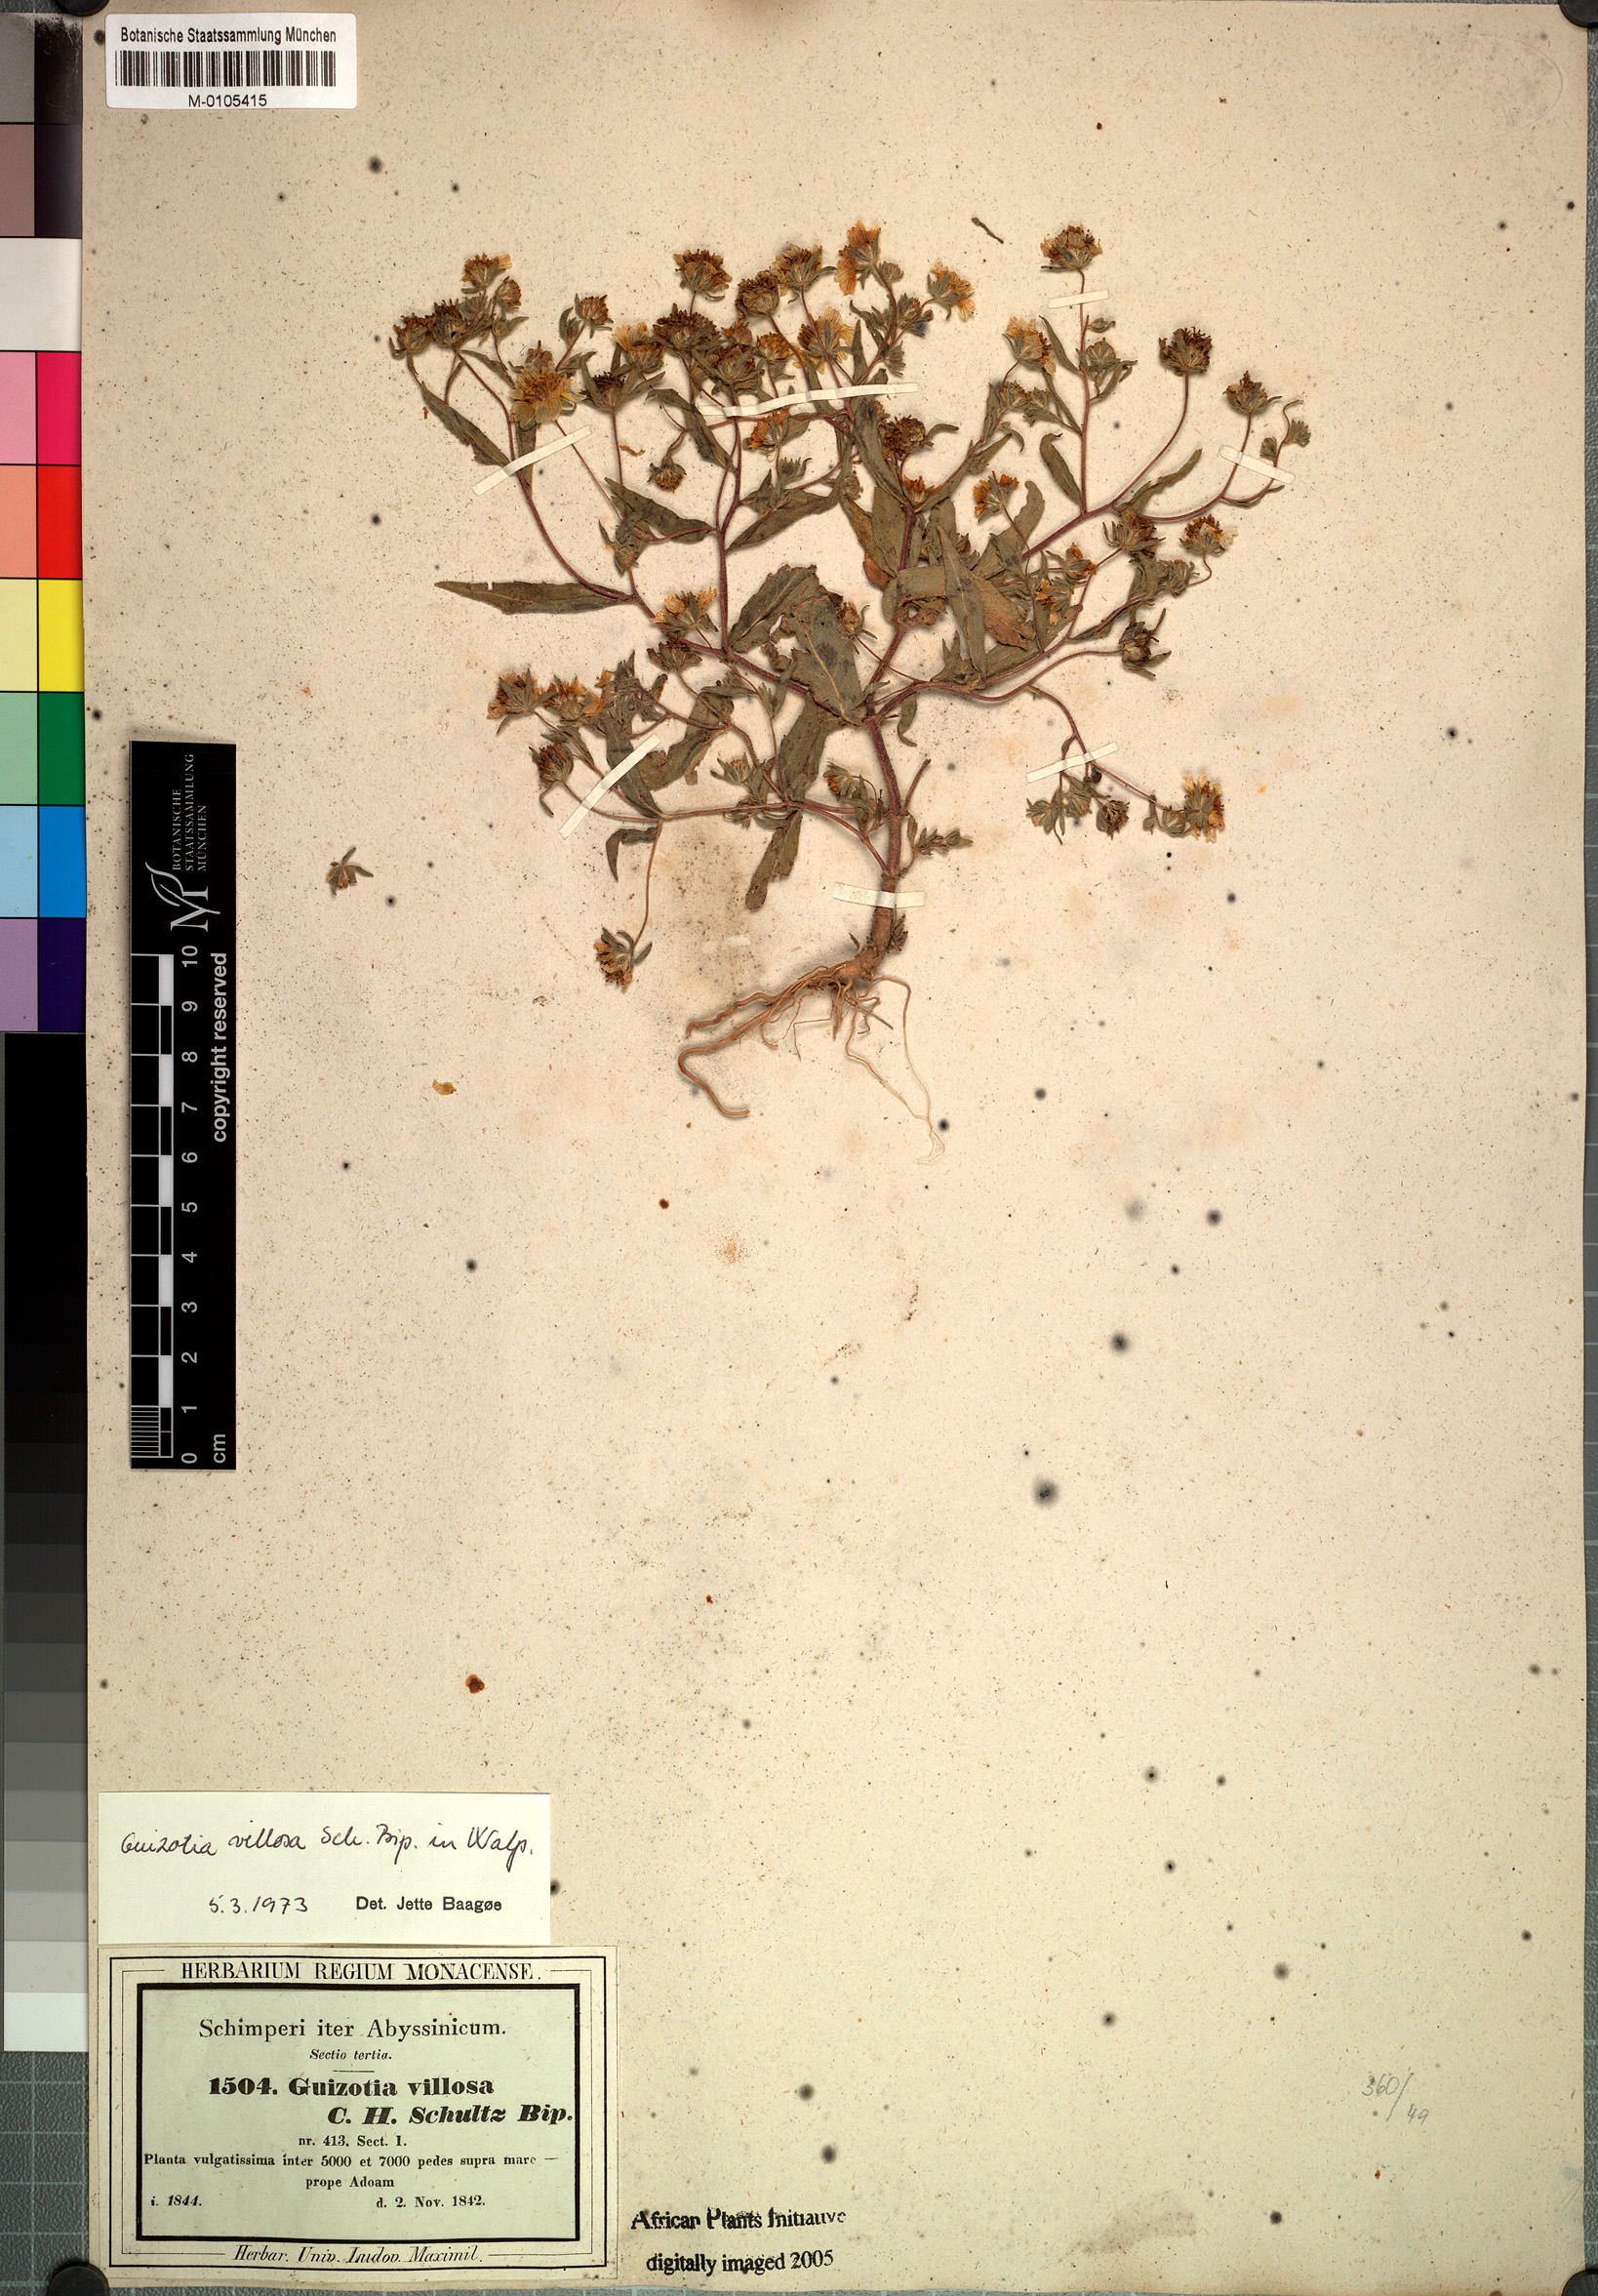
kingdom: Plantae
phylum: Tracheophyta
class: Magnoliopsida
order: Asterales
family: Asteraceae
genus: Guizotia
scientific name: Guizotia villosa
